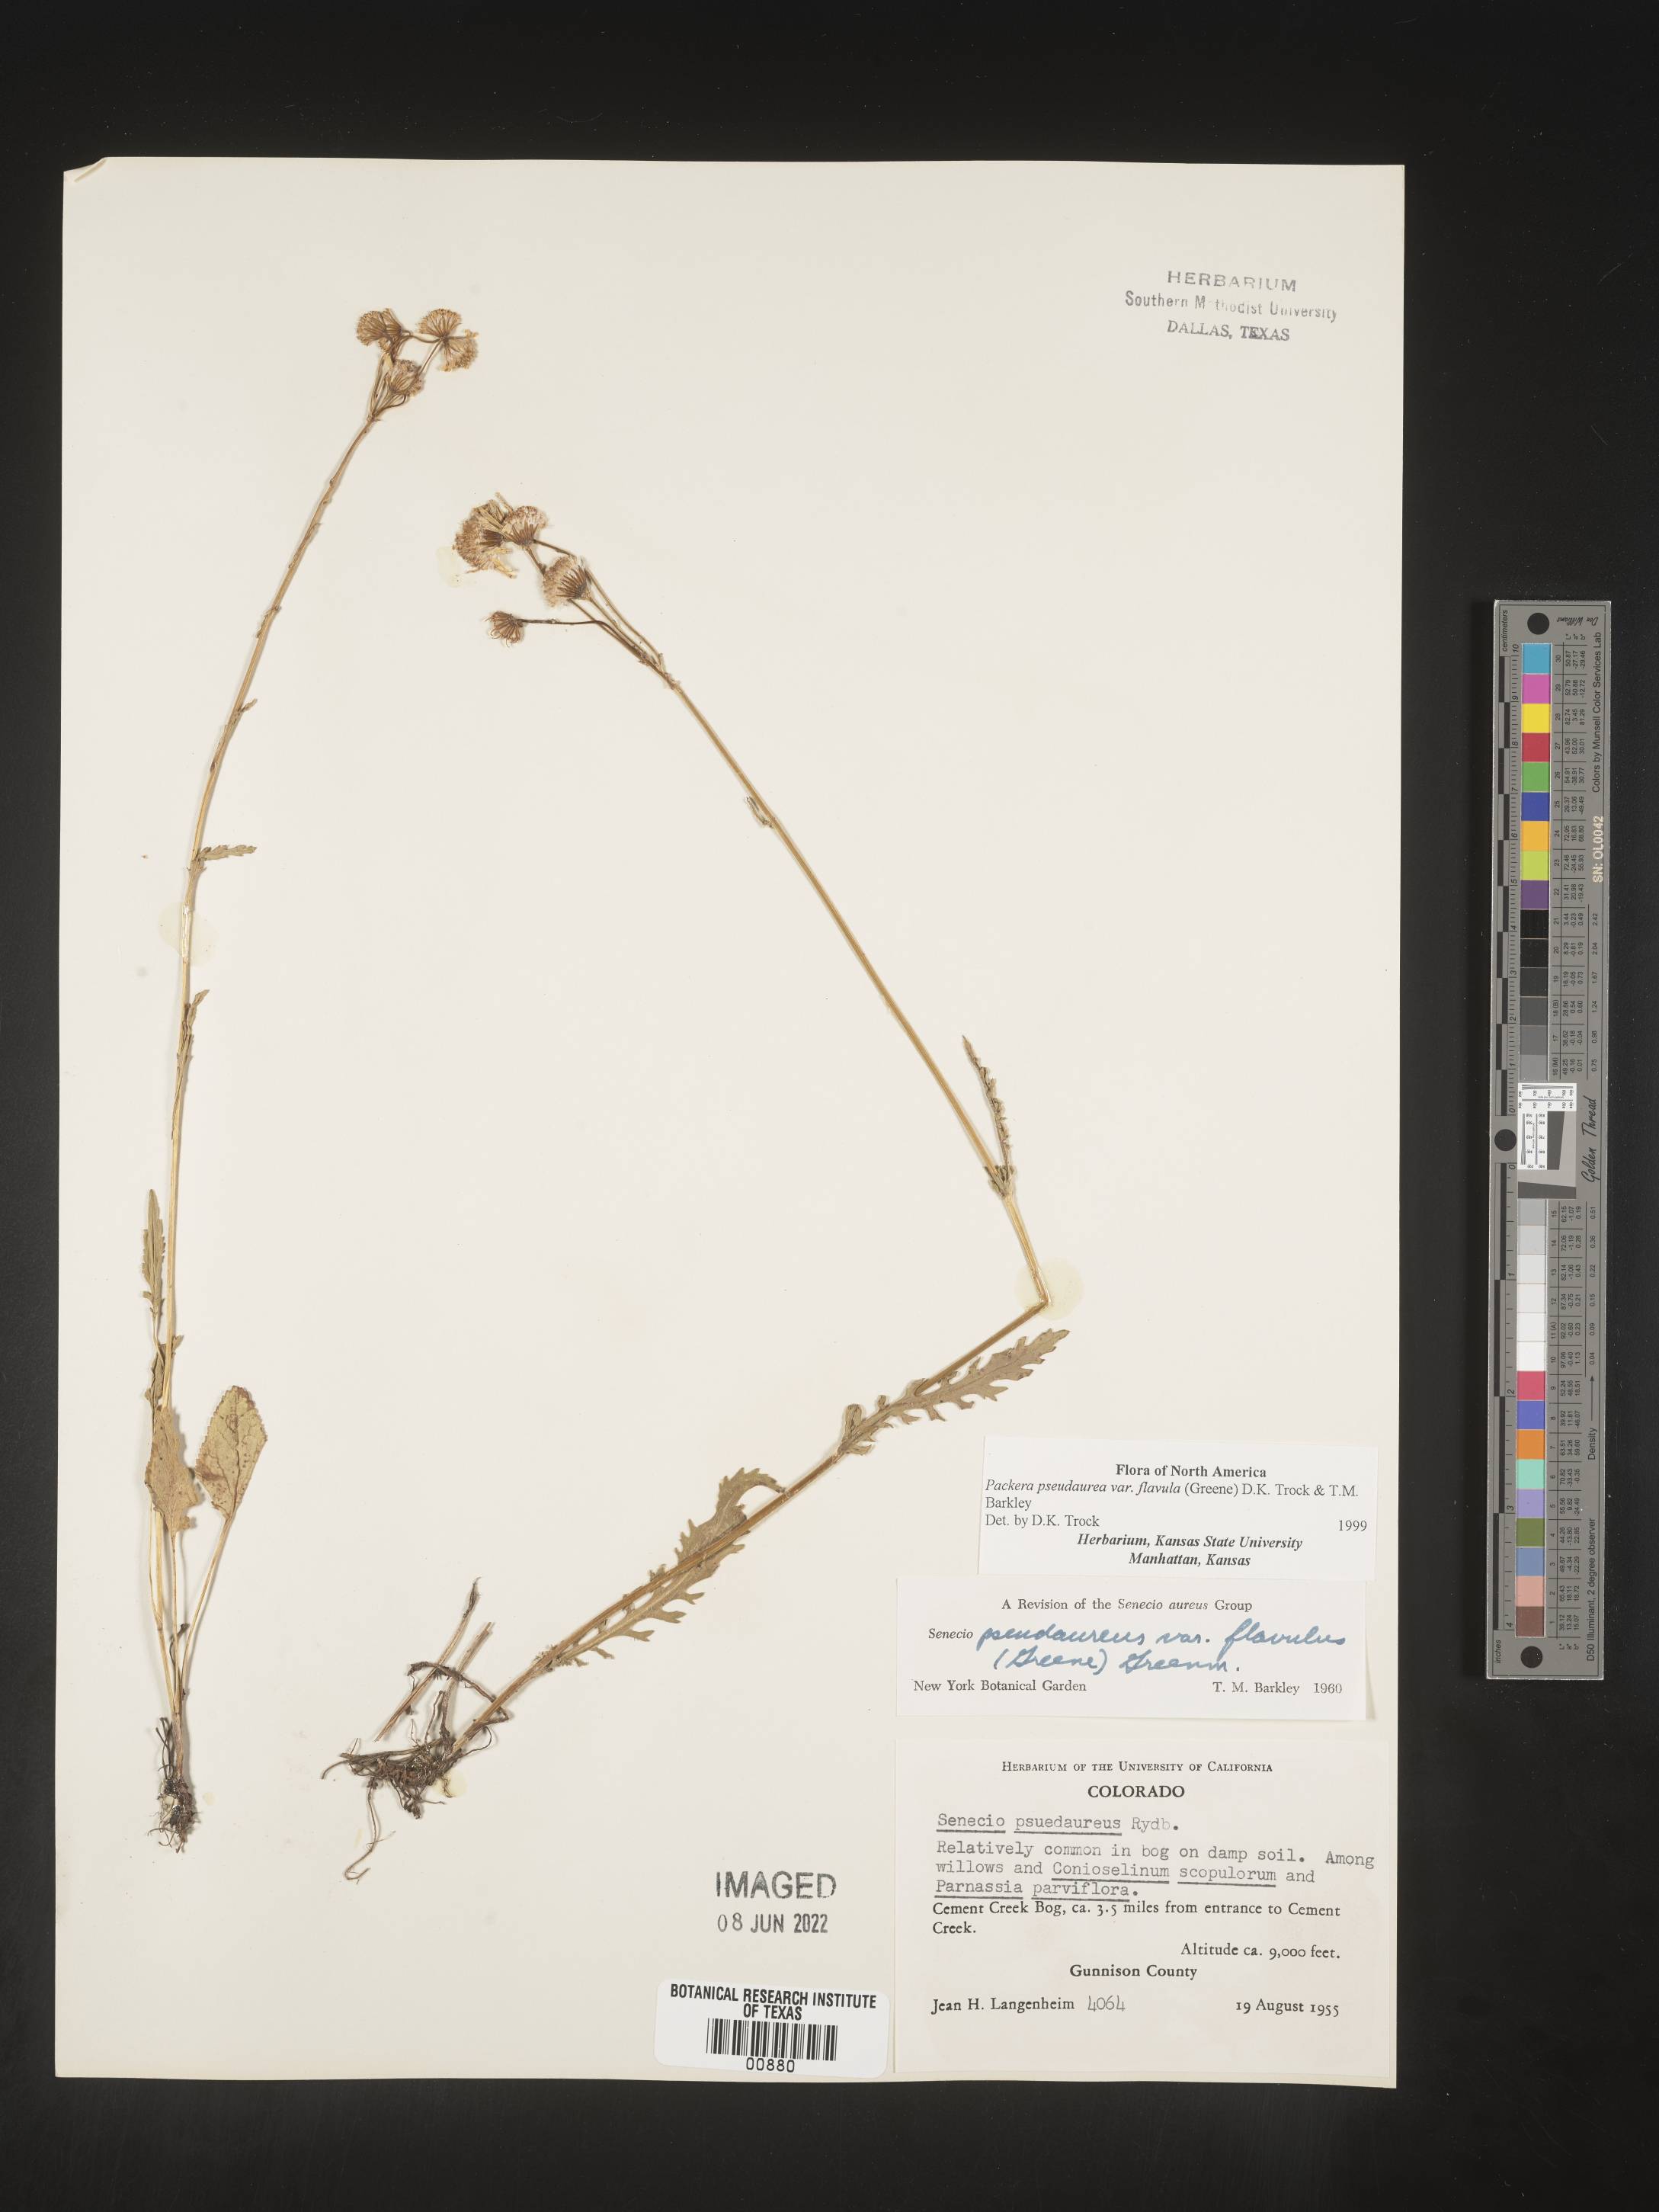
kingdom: Plantae
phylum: Tracheophyta
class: Magnoliopsida
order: Asterales
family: Asteraceae
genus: Packera
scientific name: Packera pseudaurea
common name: False-gold groundsel
